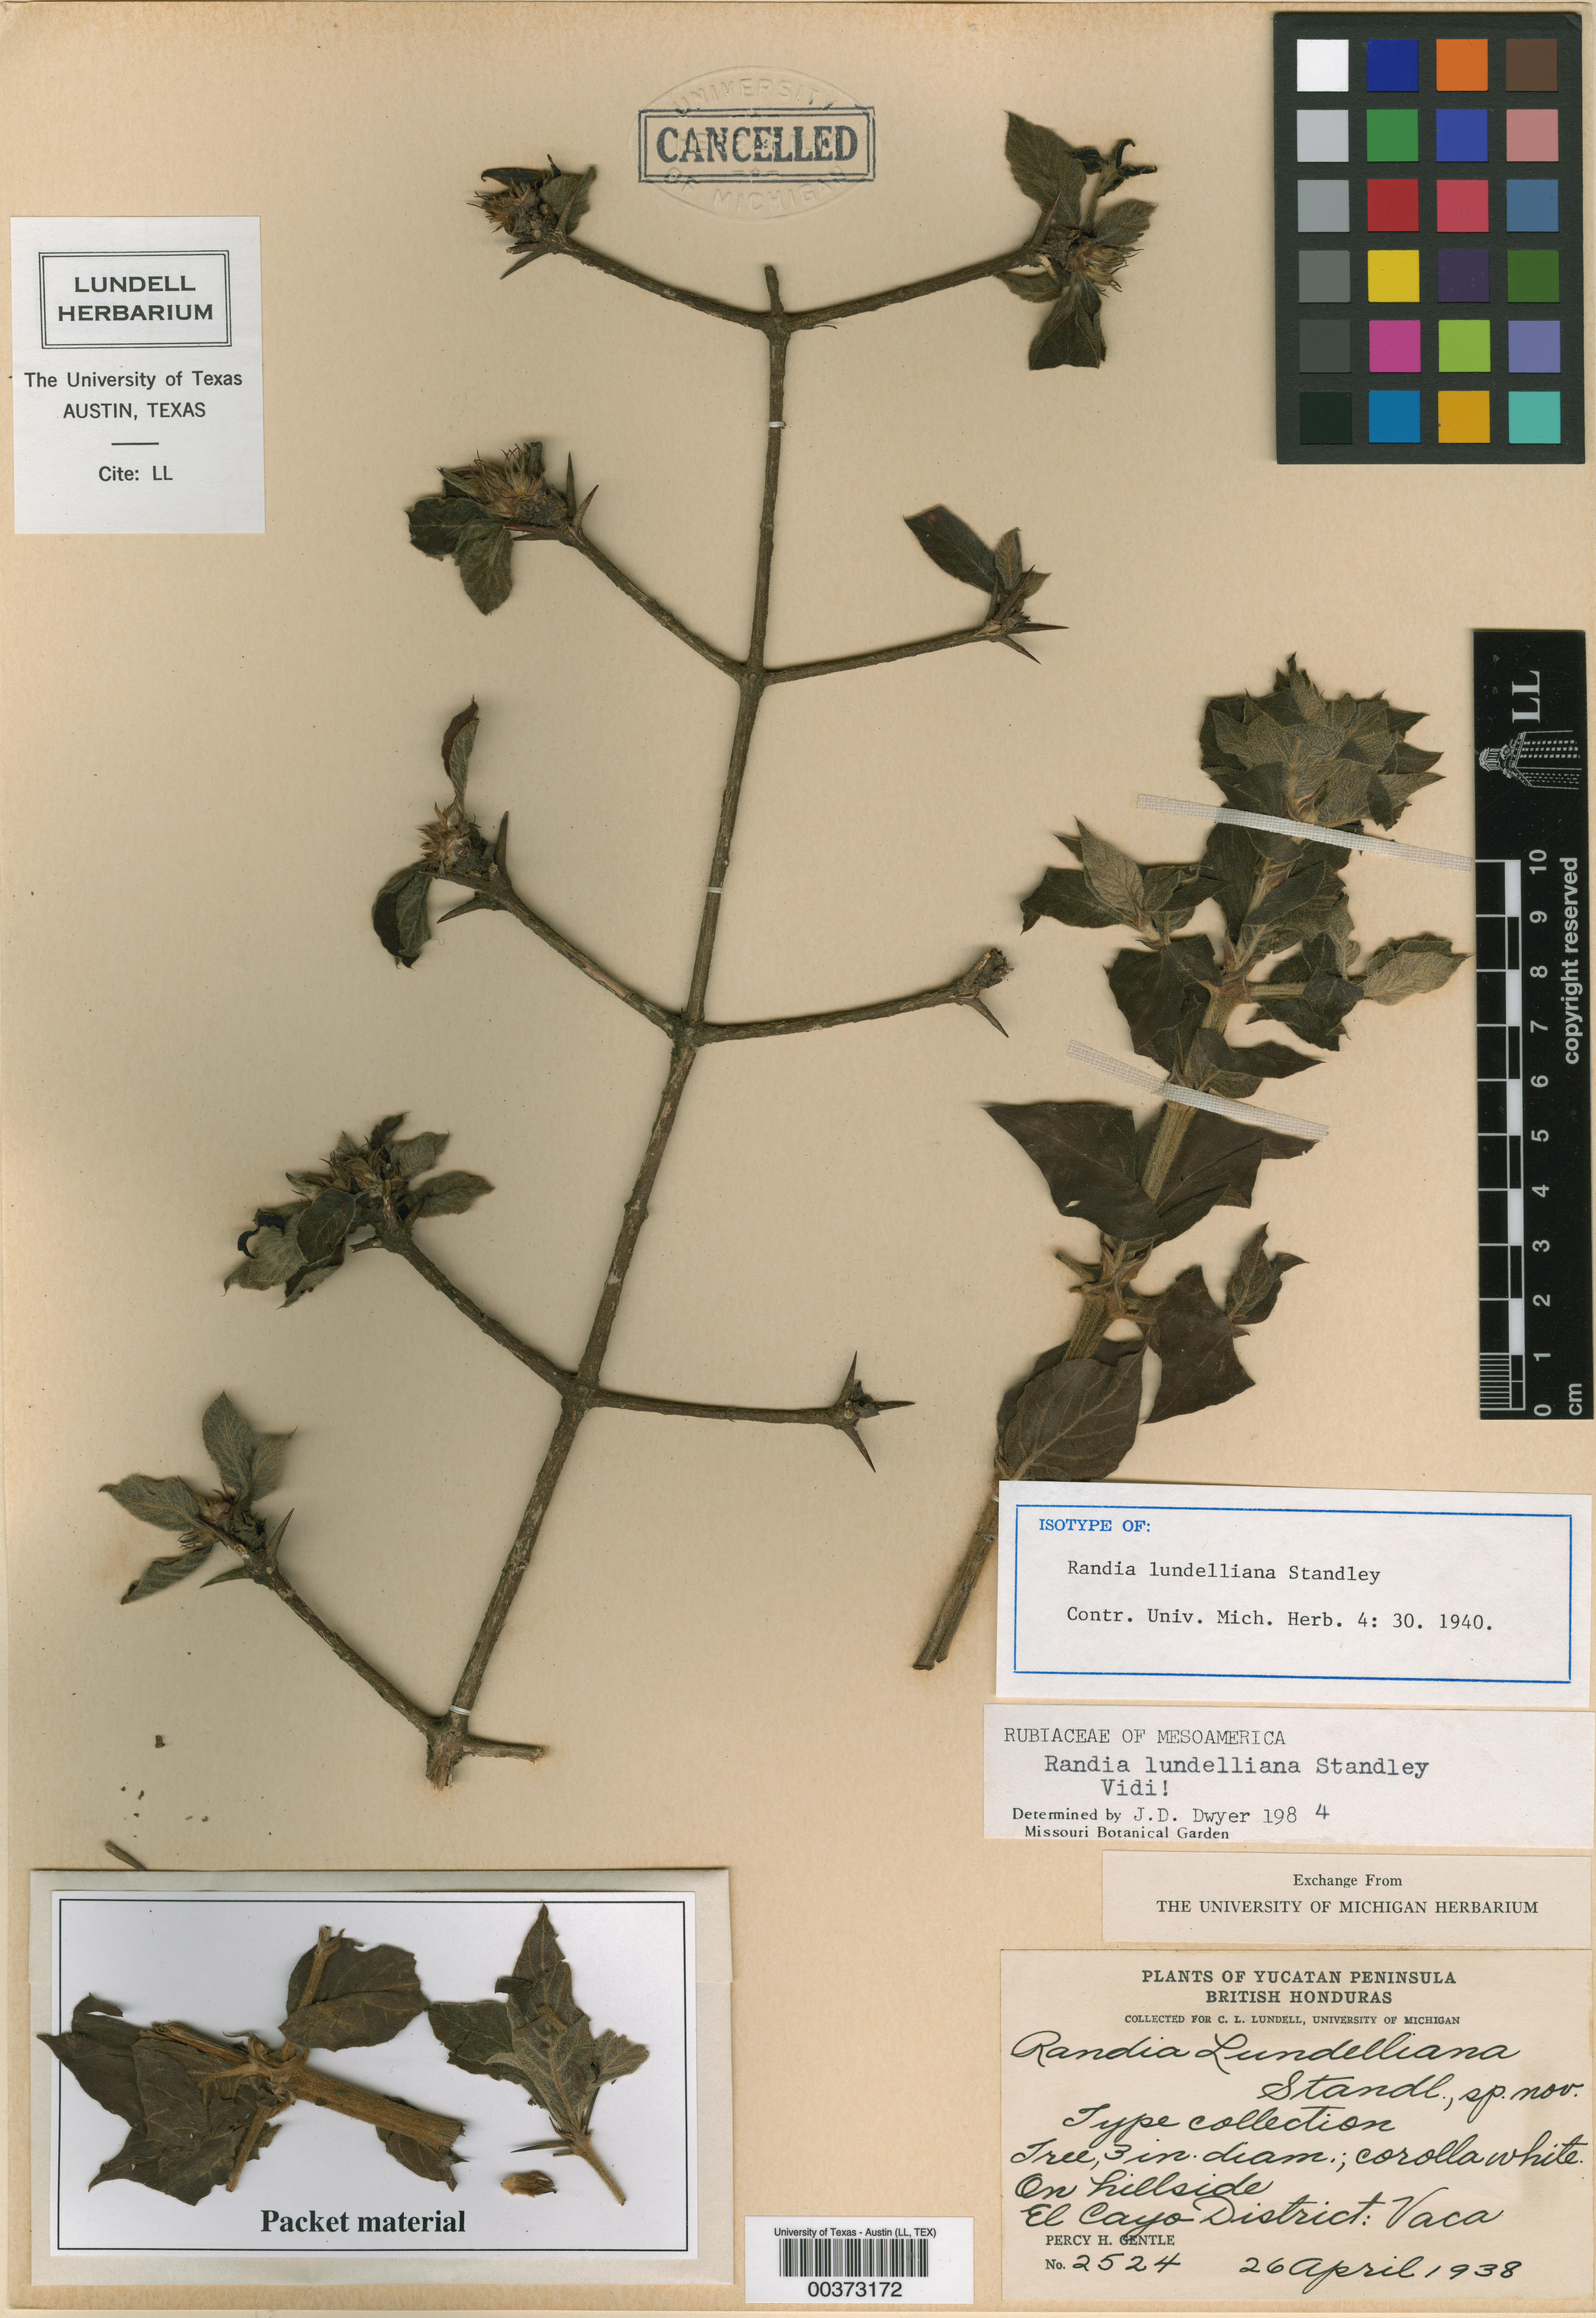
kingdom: Plantae
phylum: Tracheophyta
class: Magnoliopsida
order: Gentianales
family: Rubiaceae
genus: Randia
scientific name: Randia monantha
